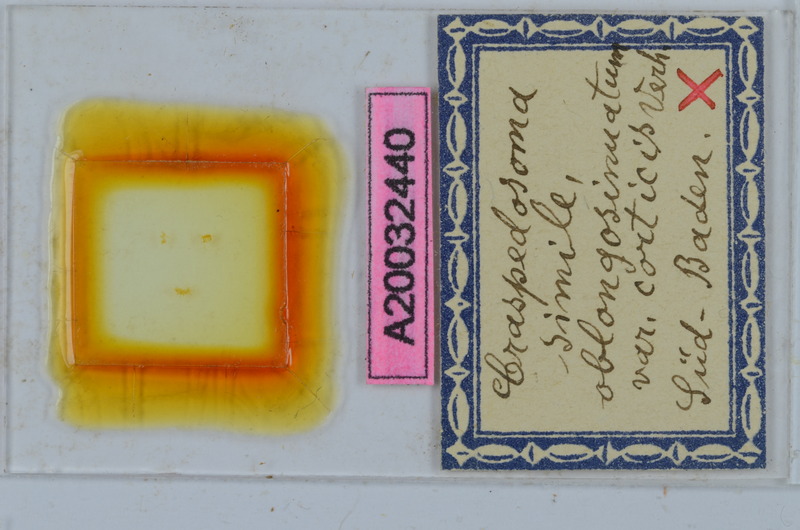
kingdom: Animalia
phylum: Arthropoda
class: Diplopoda
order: Chordeumatida
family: Craspedosomatidae
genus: Craspedosoma
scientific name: Craspedosoma rawlinsii
